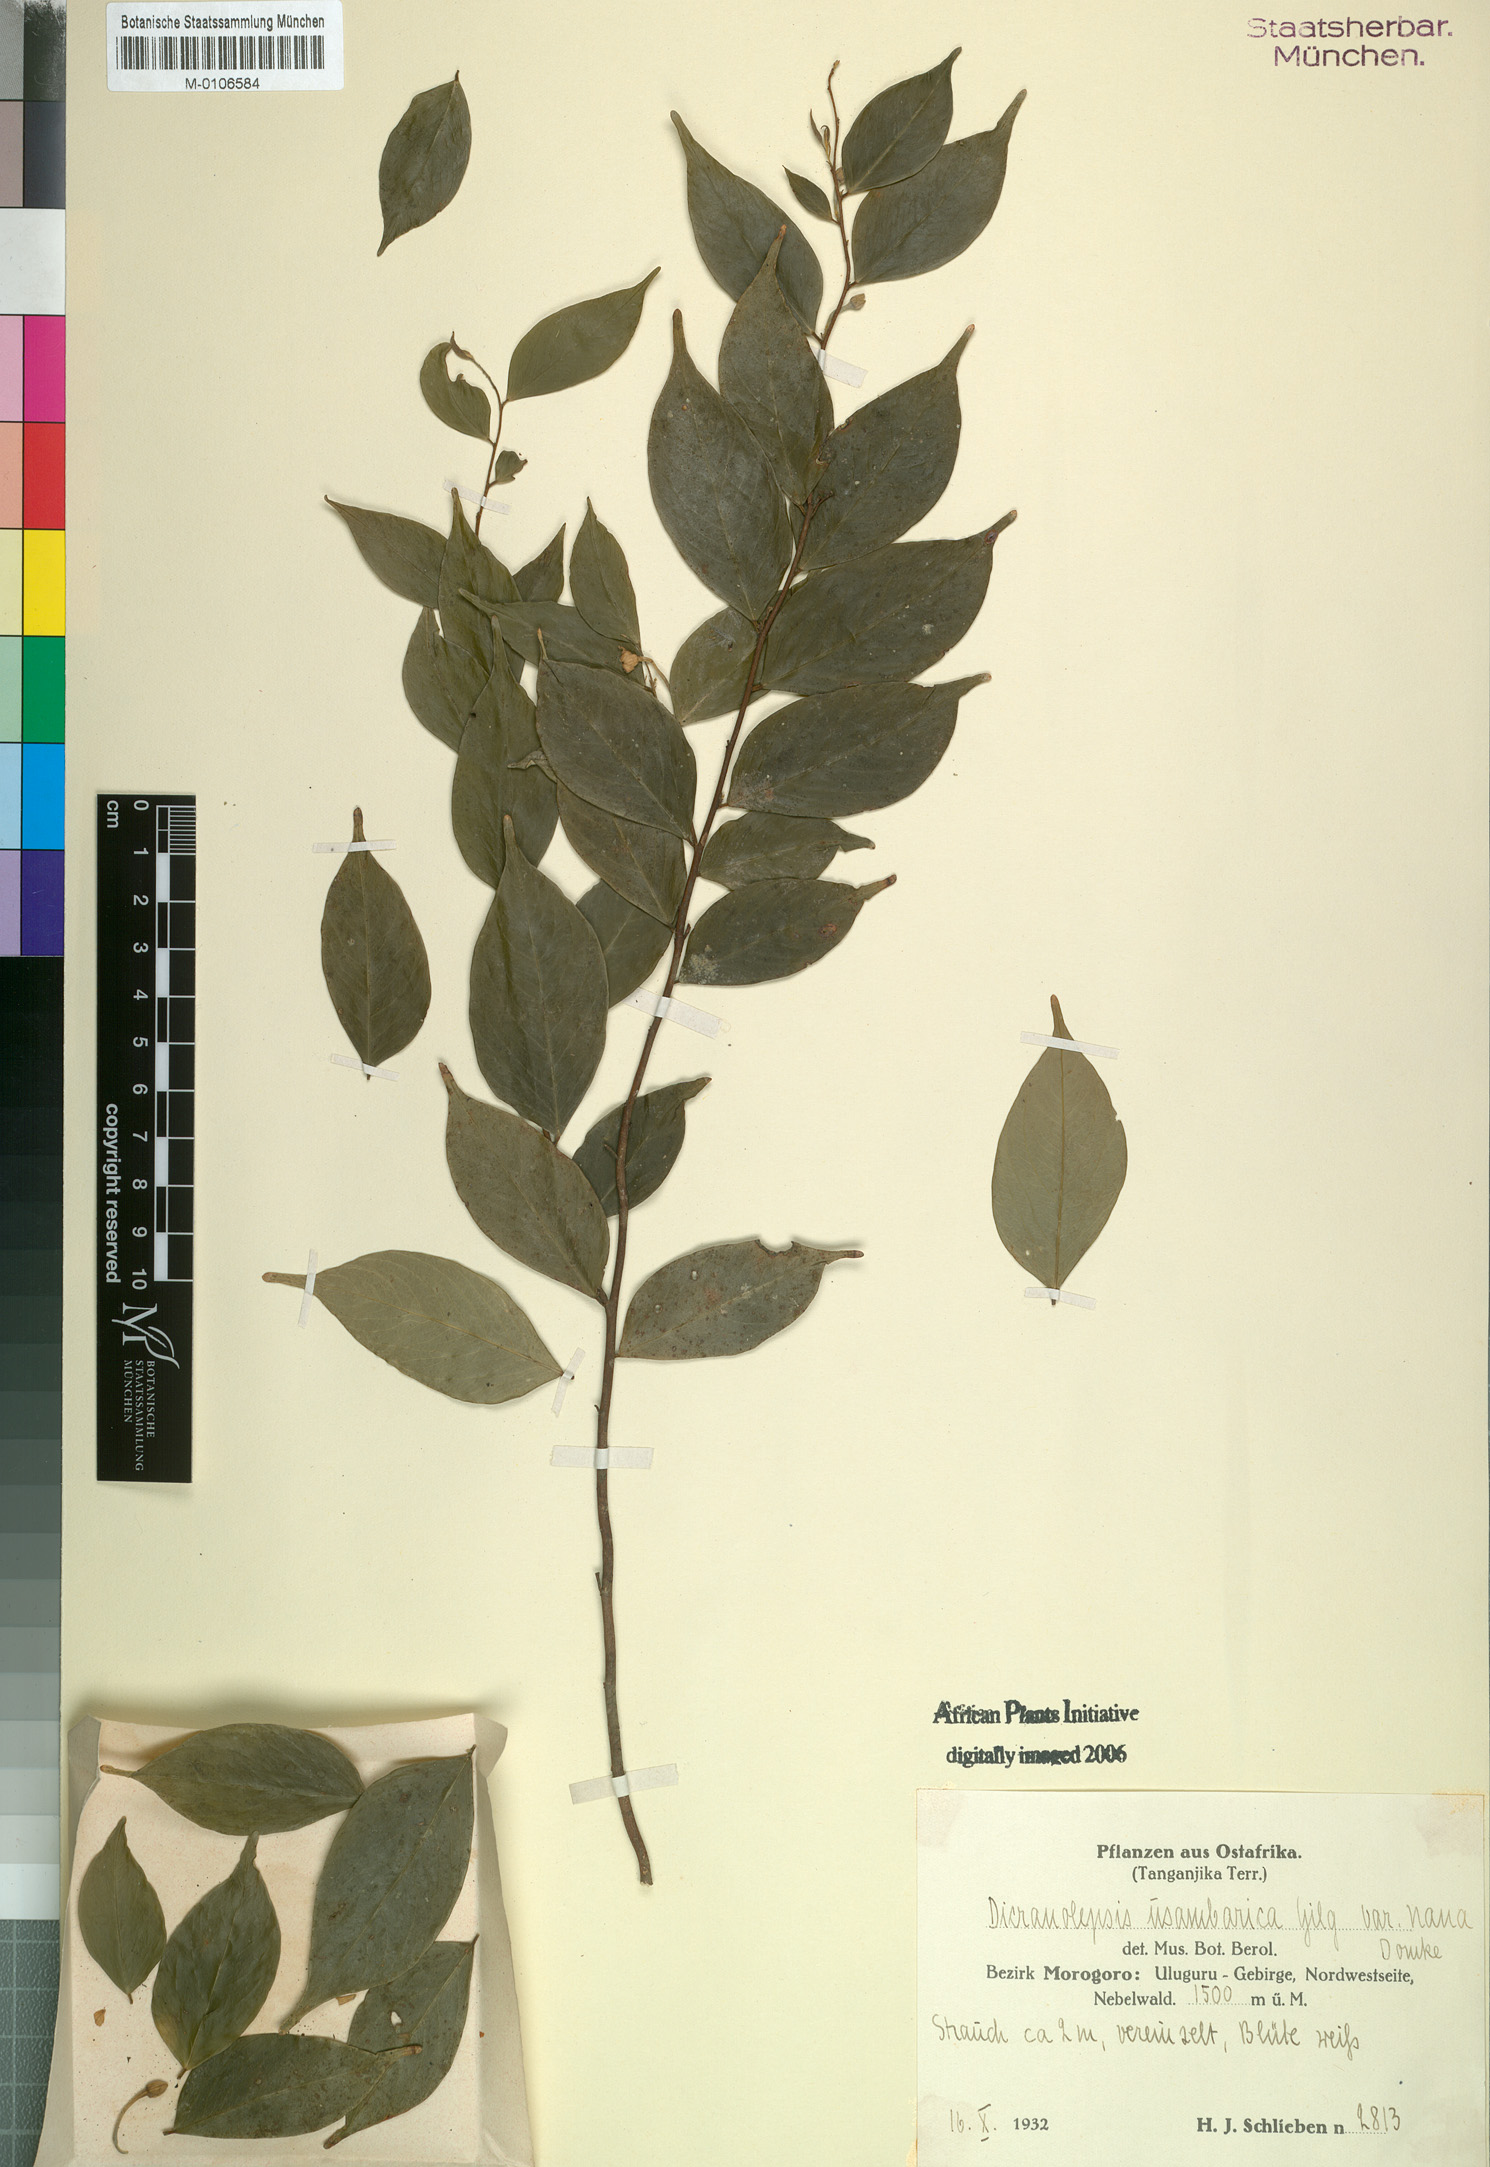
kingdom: Plantae
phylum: Tracheophyta
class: Magnoliopsida
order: Malvales
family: Thymelaeaceae
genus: Dicranolepis
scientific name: Dicranolepis usambarica
